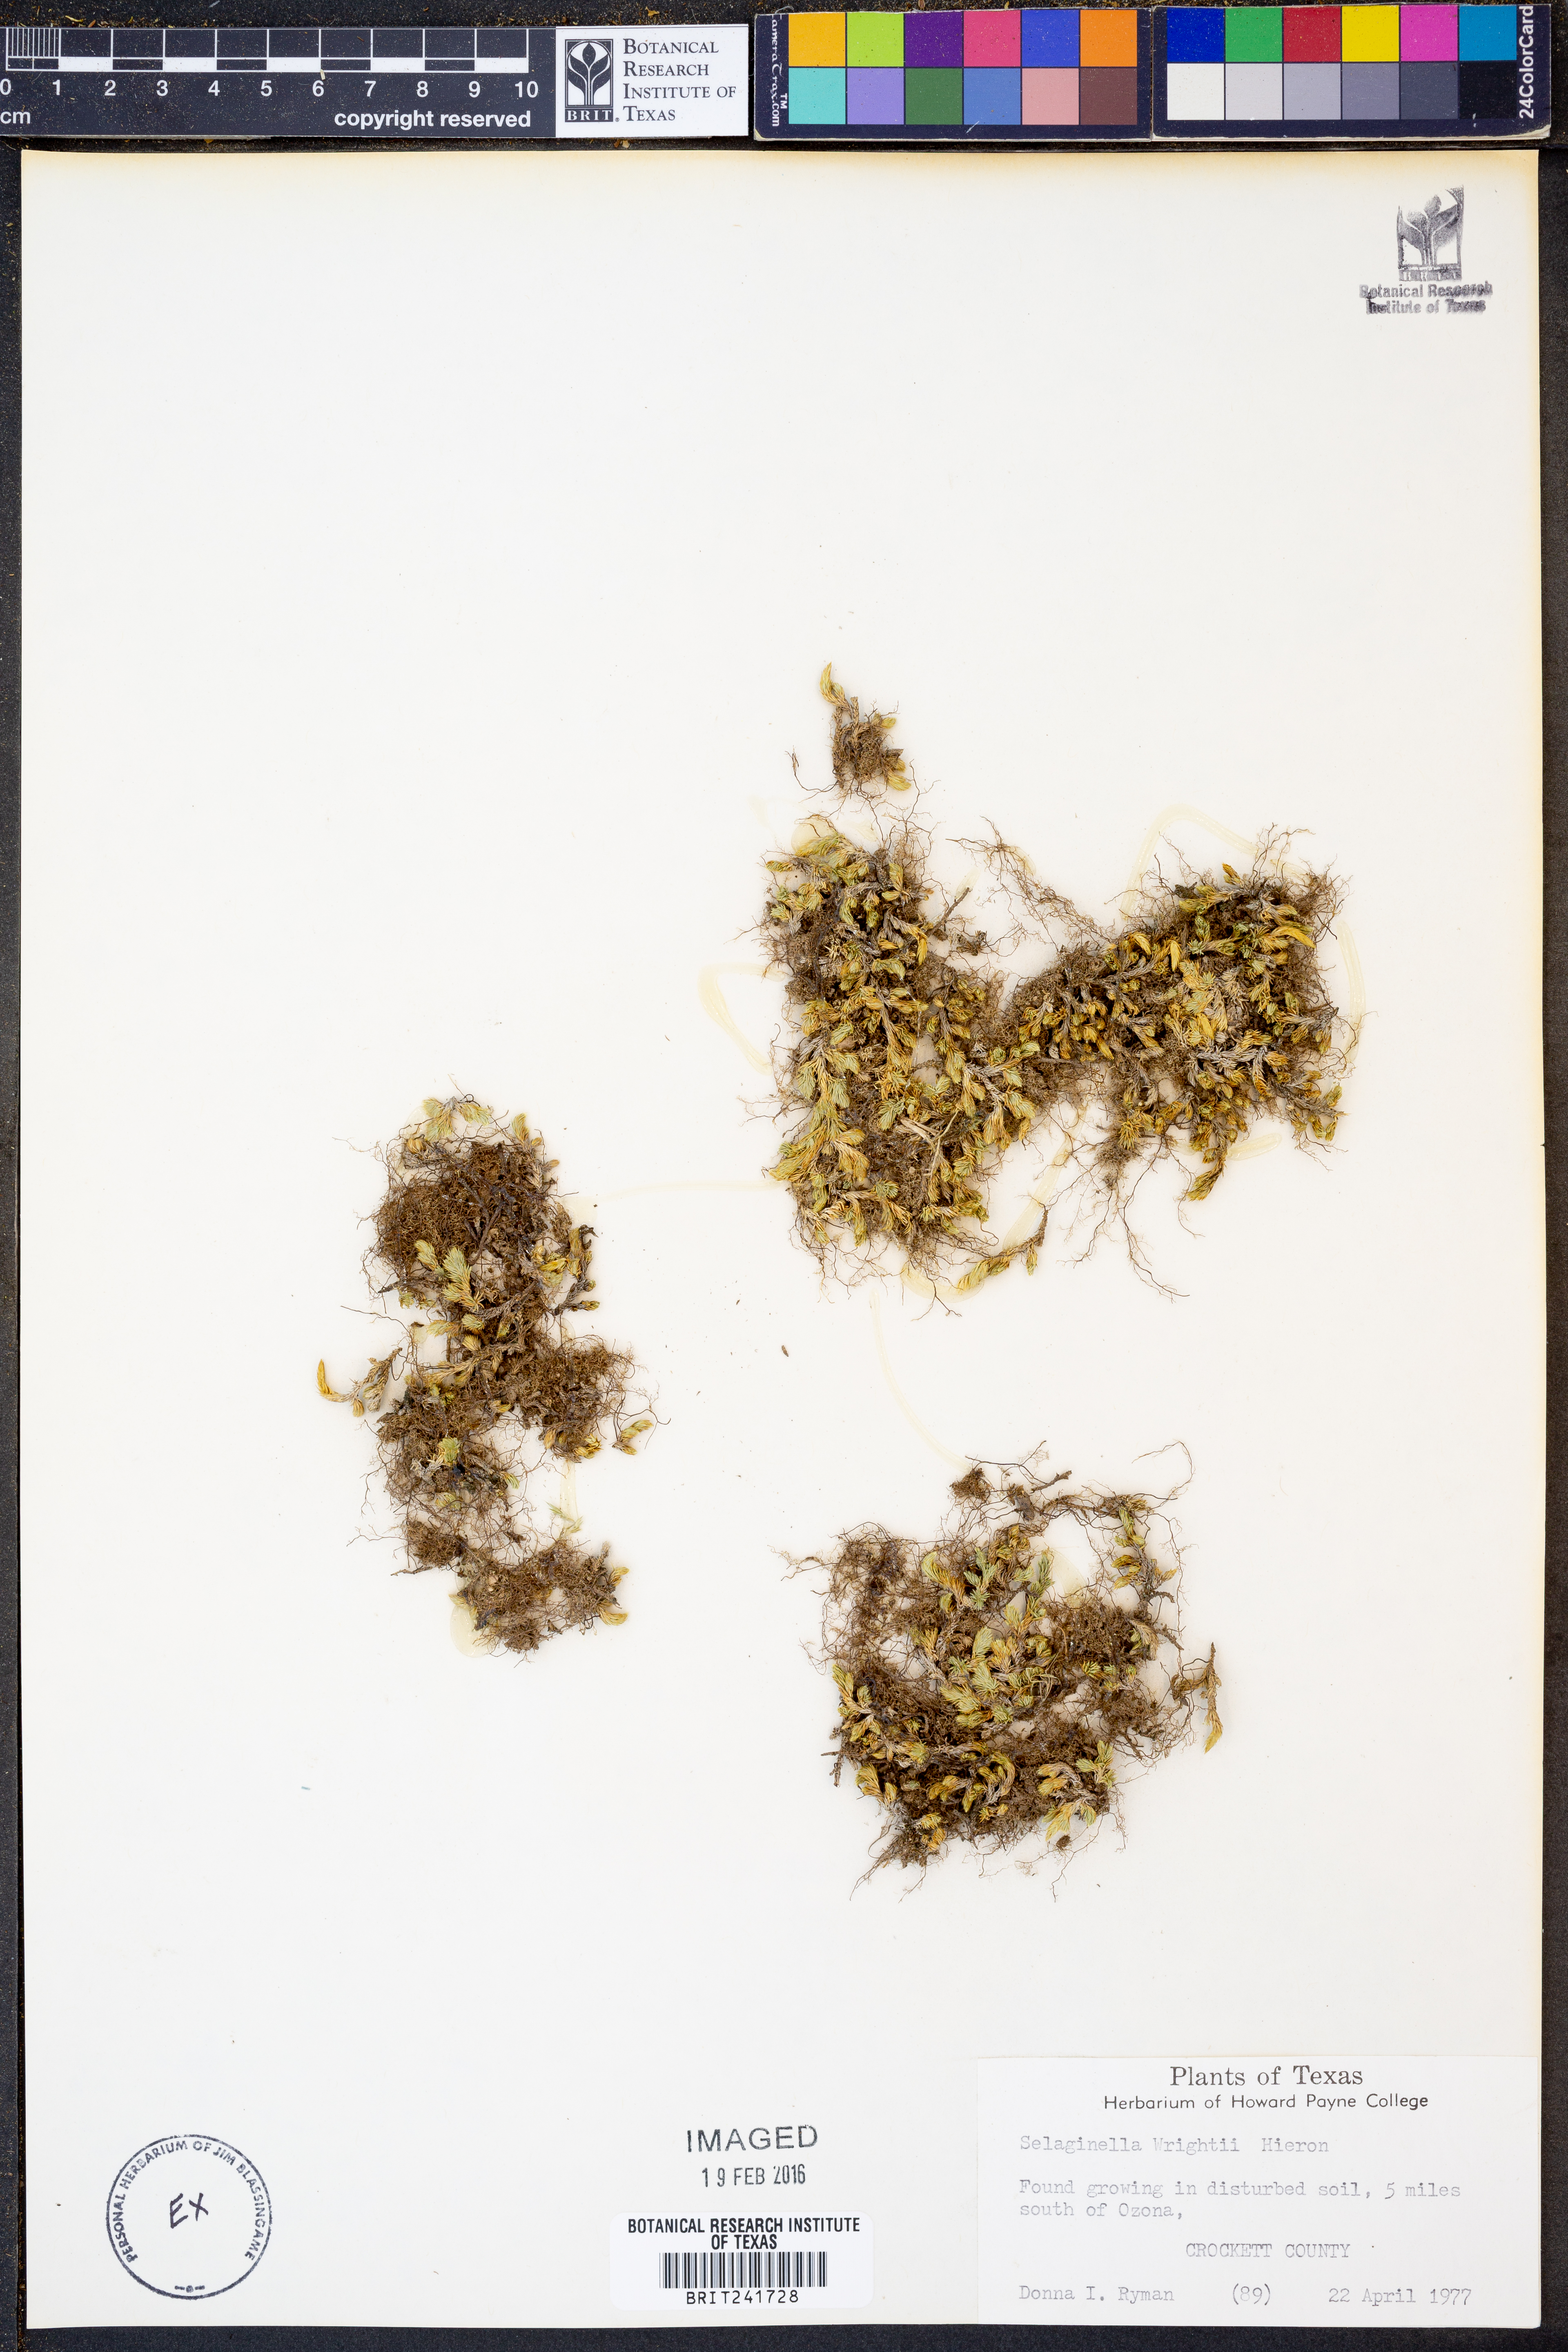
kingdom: Plantae
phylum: Tracheophyta
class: Lycopodiopsida
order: Selaginellales
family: Selaginellaceae
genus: Selaginella
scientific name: Selaginella wrightii
